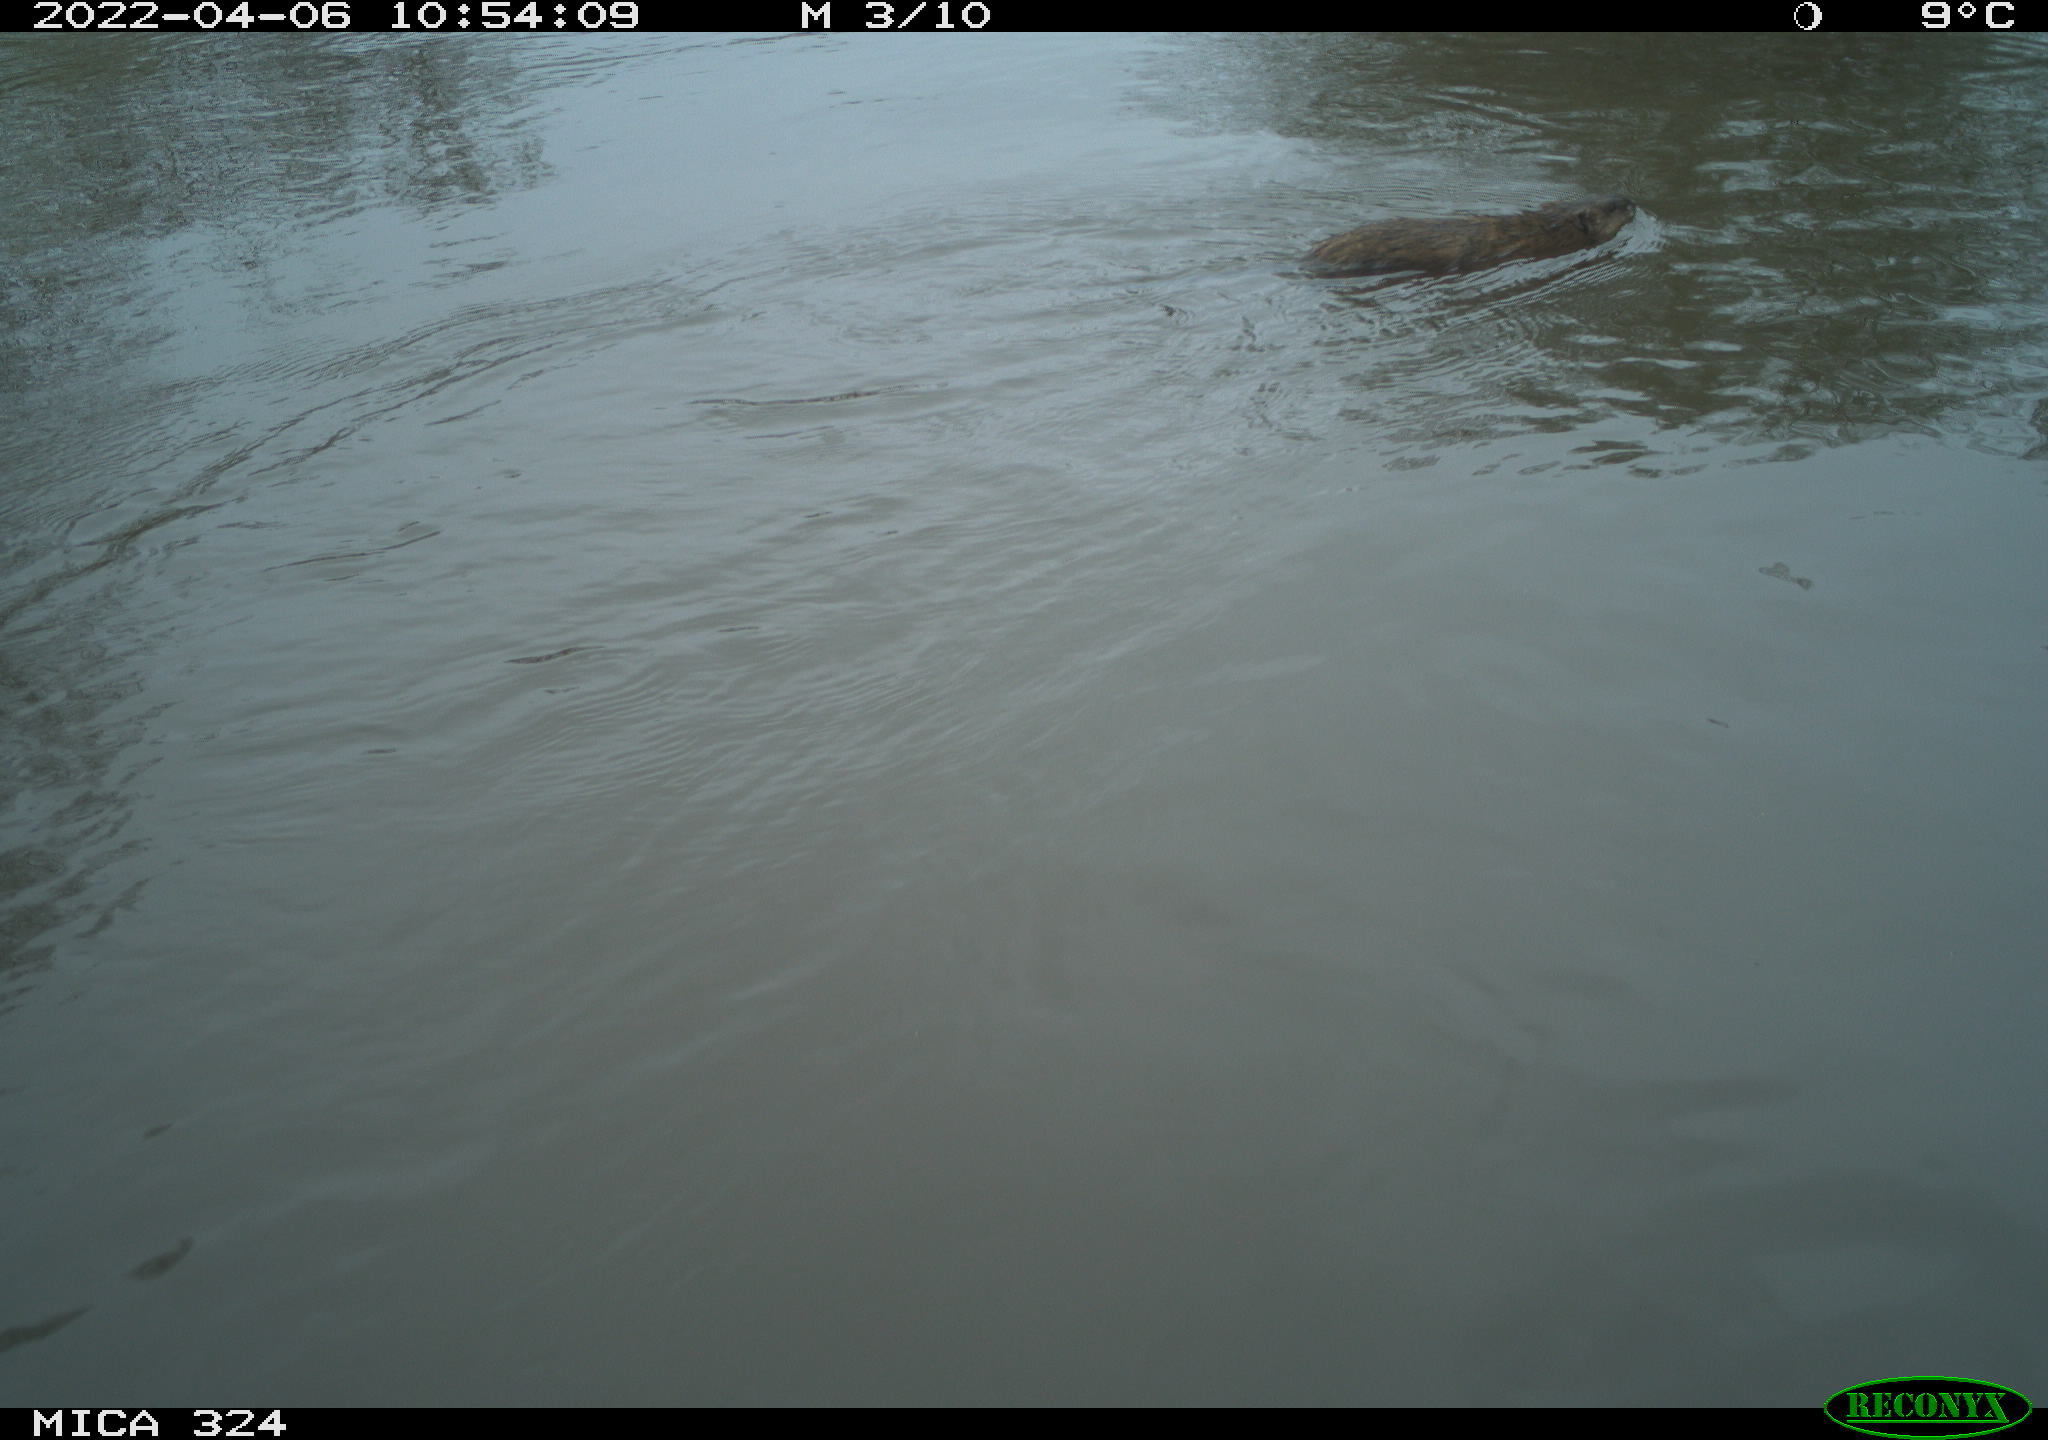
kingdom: Animalia
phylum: Chordata
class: Mammalia
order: Rodentia
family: Cricetidae
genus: Ondatra
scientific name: Ondatra zibethicus
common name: Muskrat
